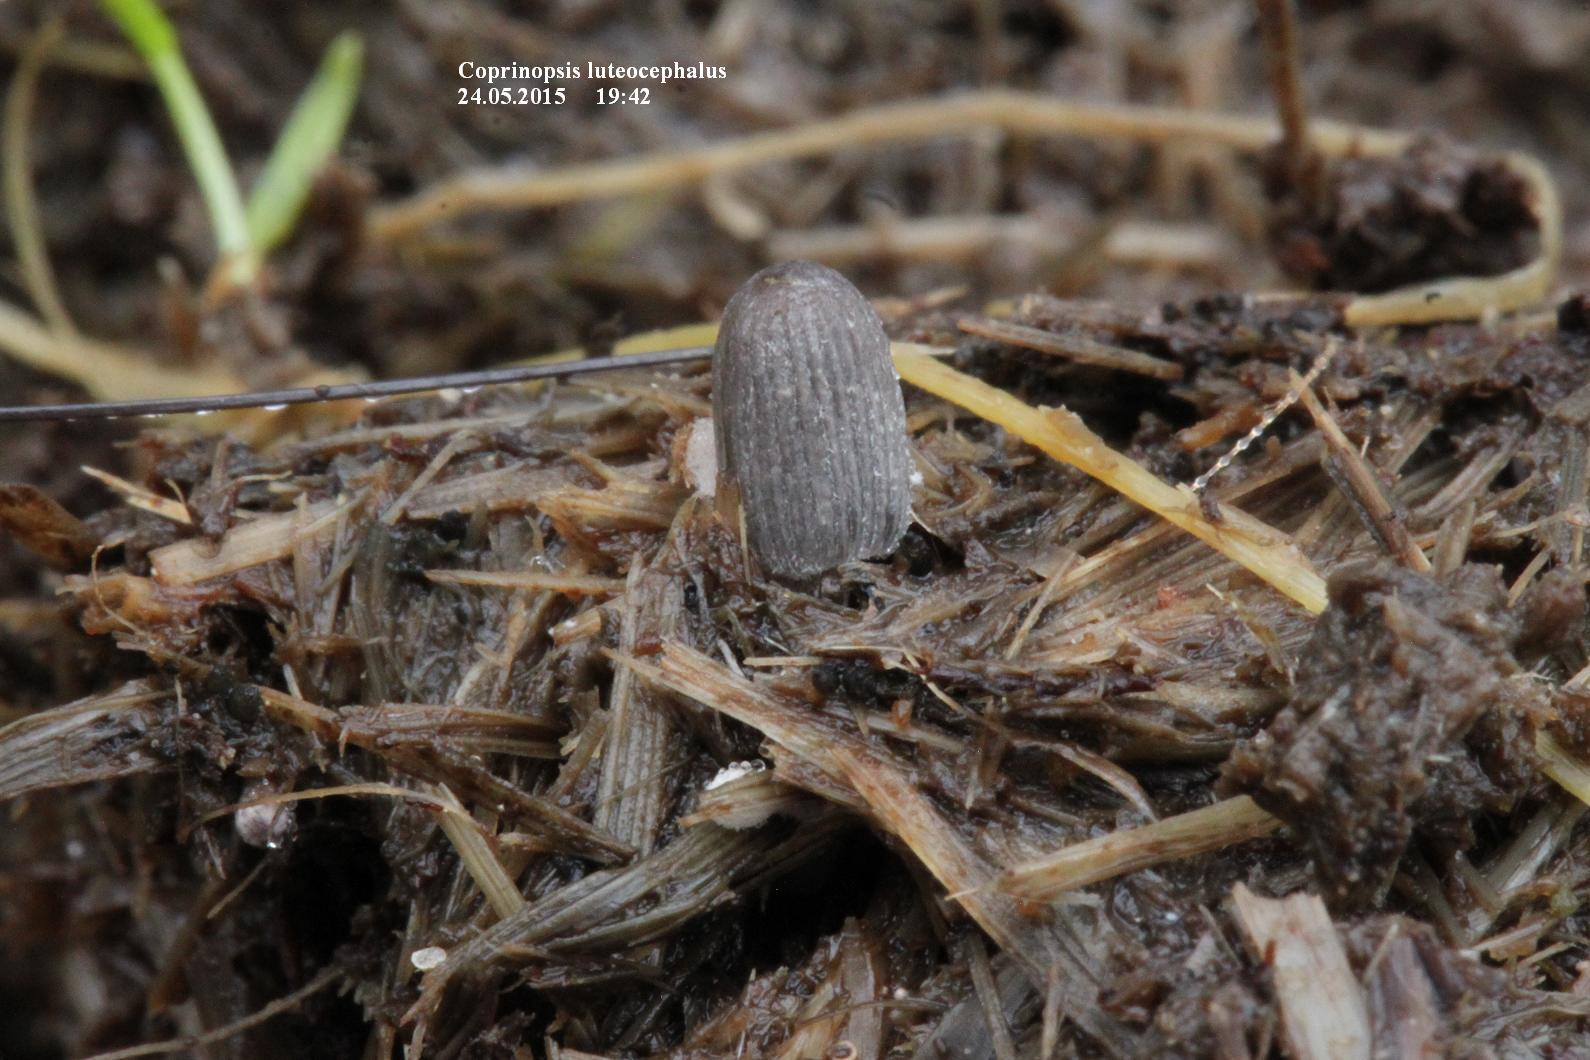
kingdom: Fungi
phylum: Basidiomycota
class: Agaricomycetes
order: Agaricales
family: Psathyrellaceae
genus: Coprinopsis
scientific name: Coprinopsis luteocephala
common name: gullig blækhat
